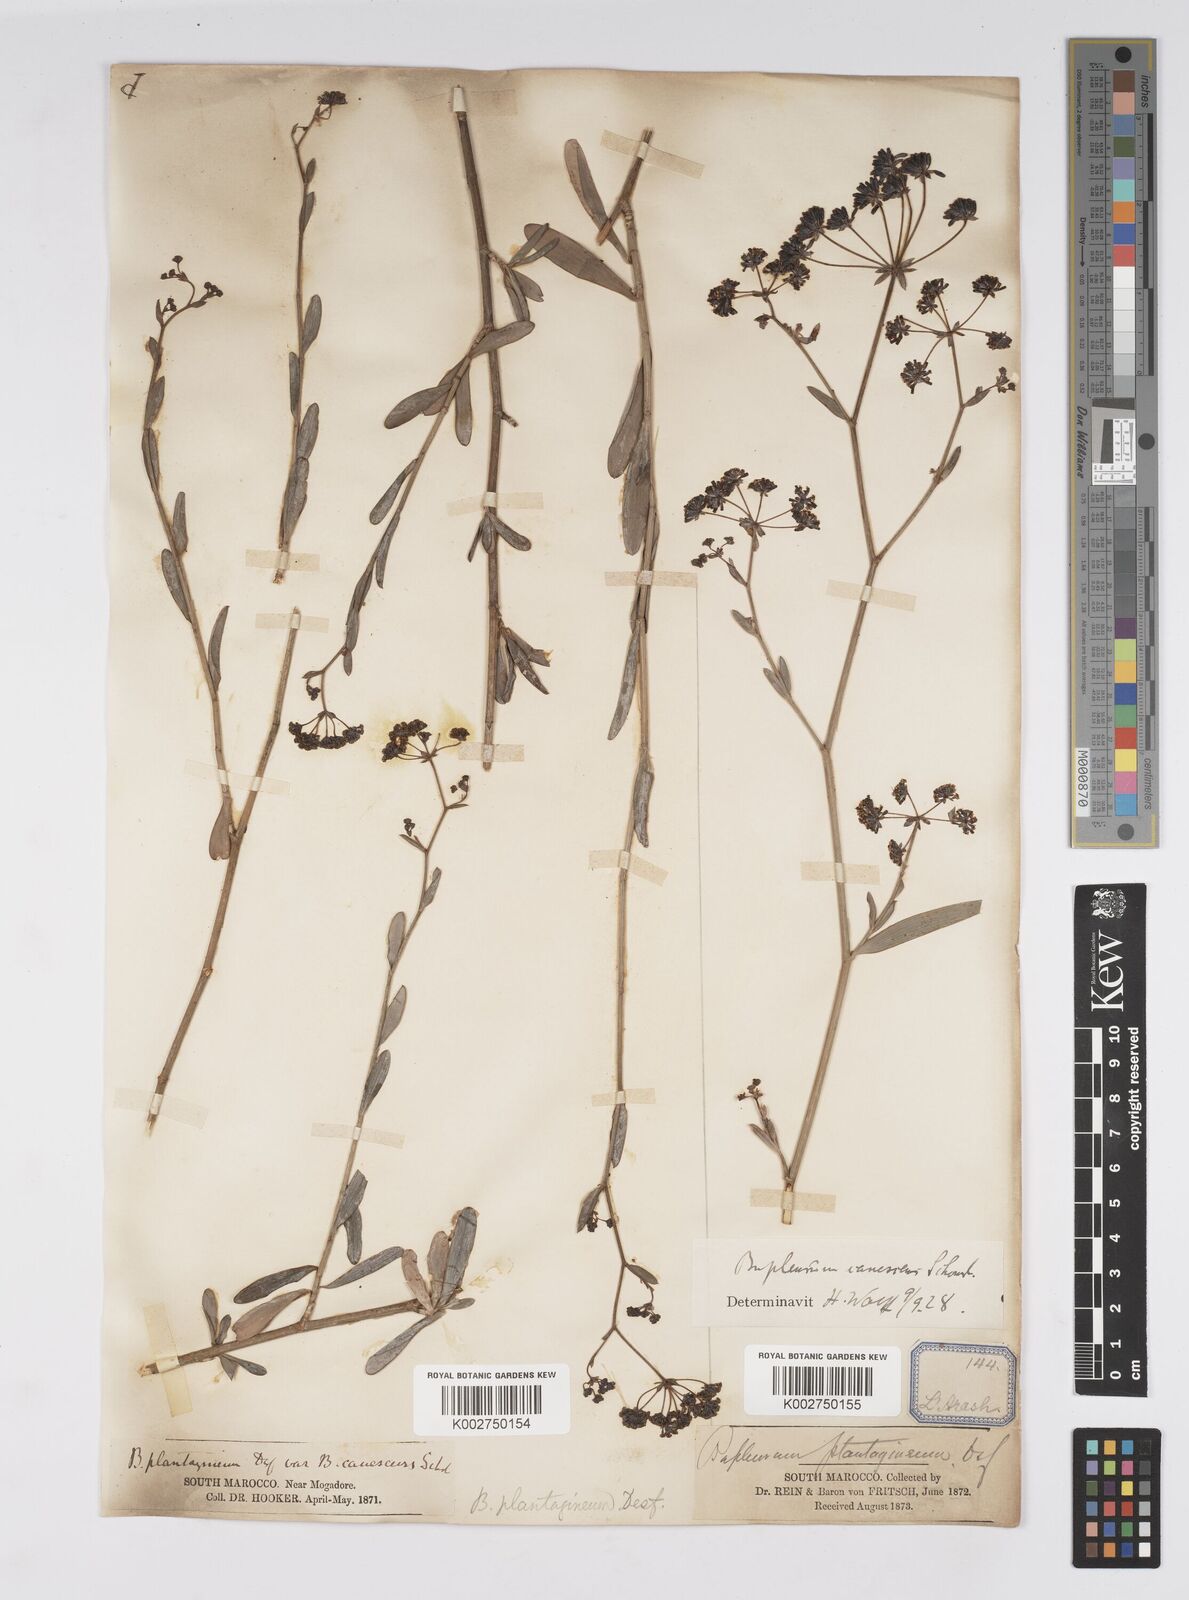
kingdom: Plantae
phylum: Tracheophyta
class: Magnoliopsida
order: Apiales
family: Apiaceae
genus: Bupleurum
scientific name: Bupleurum canescens
